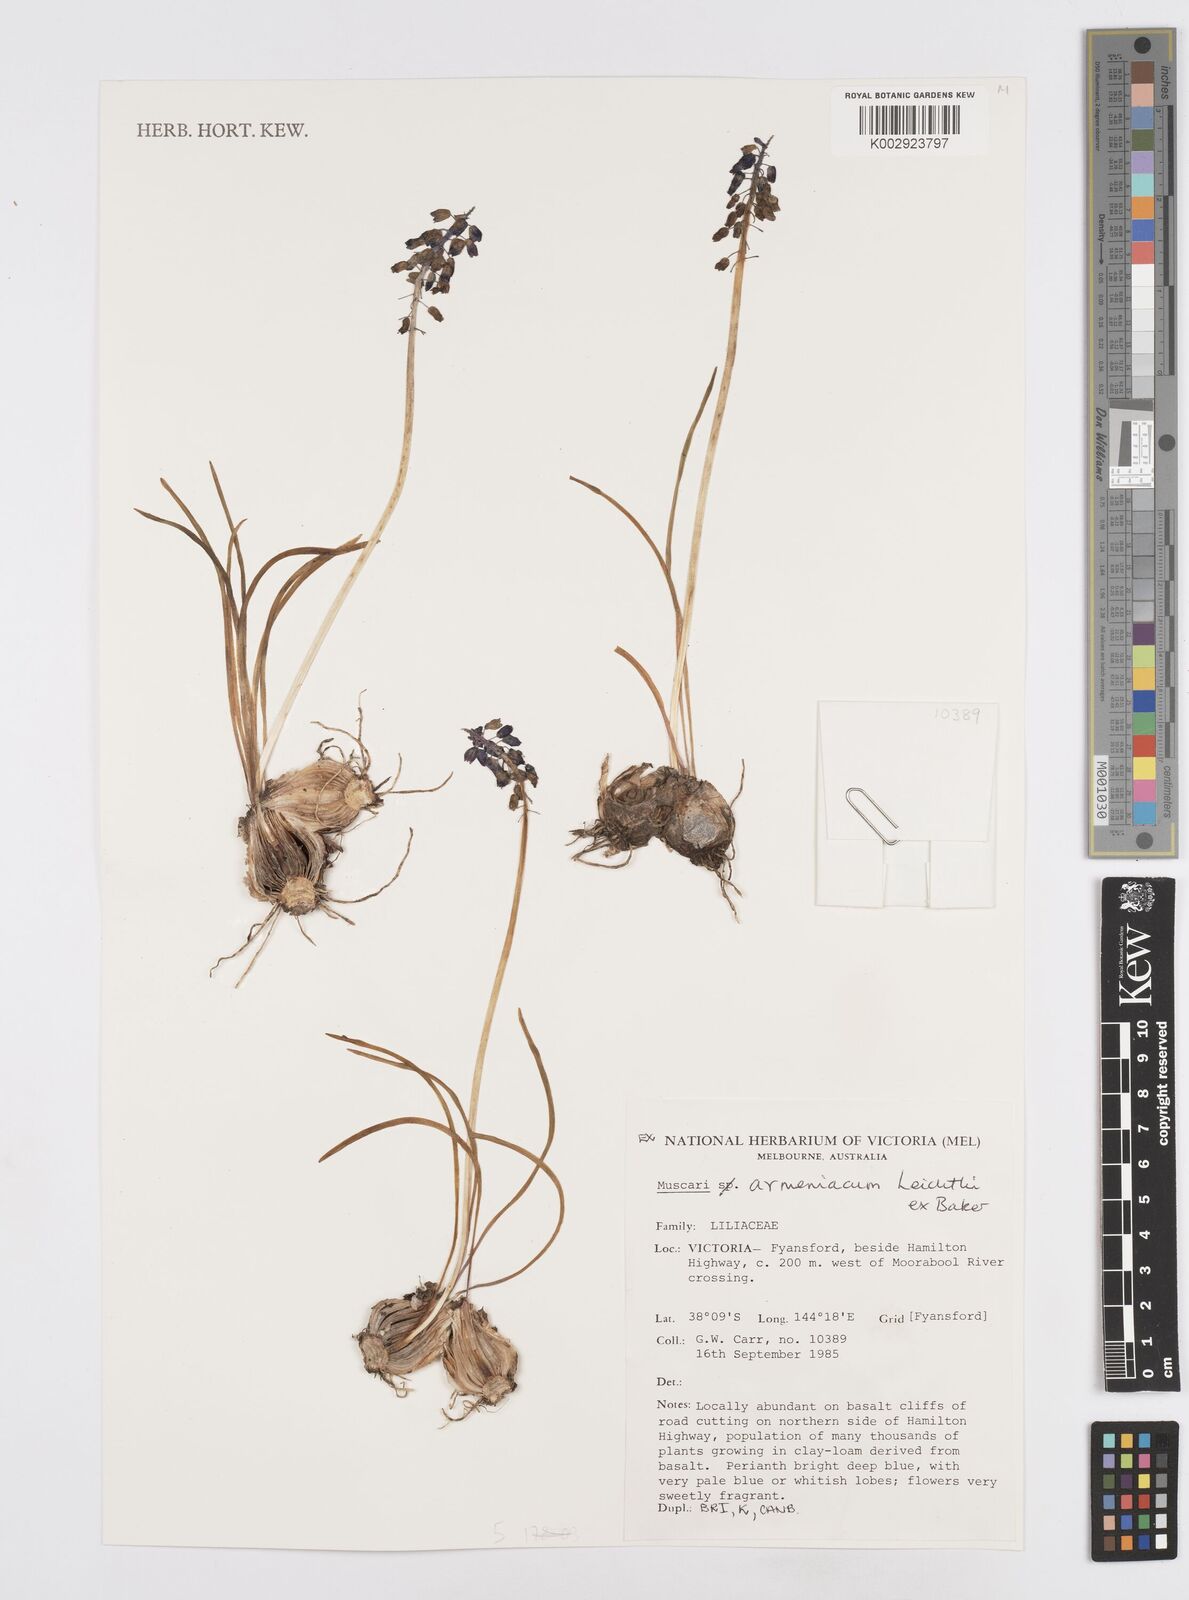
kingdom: Plantae
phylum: Tracheophyta
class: Liliopsida
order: Asparagales
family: Asparagaceae
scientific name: Asparagaceae
